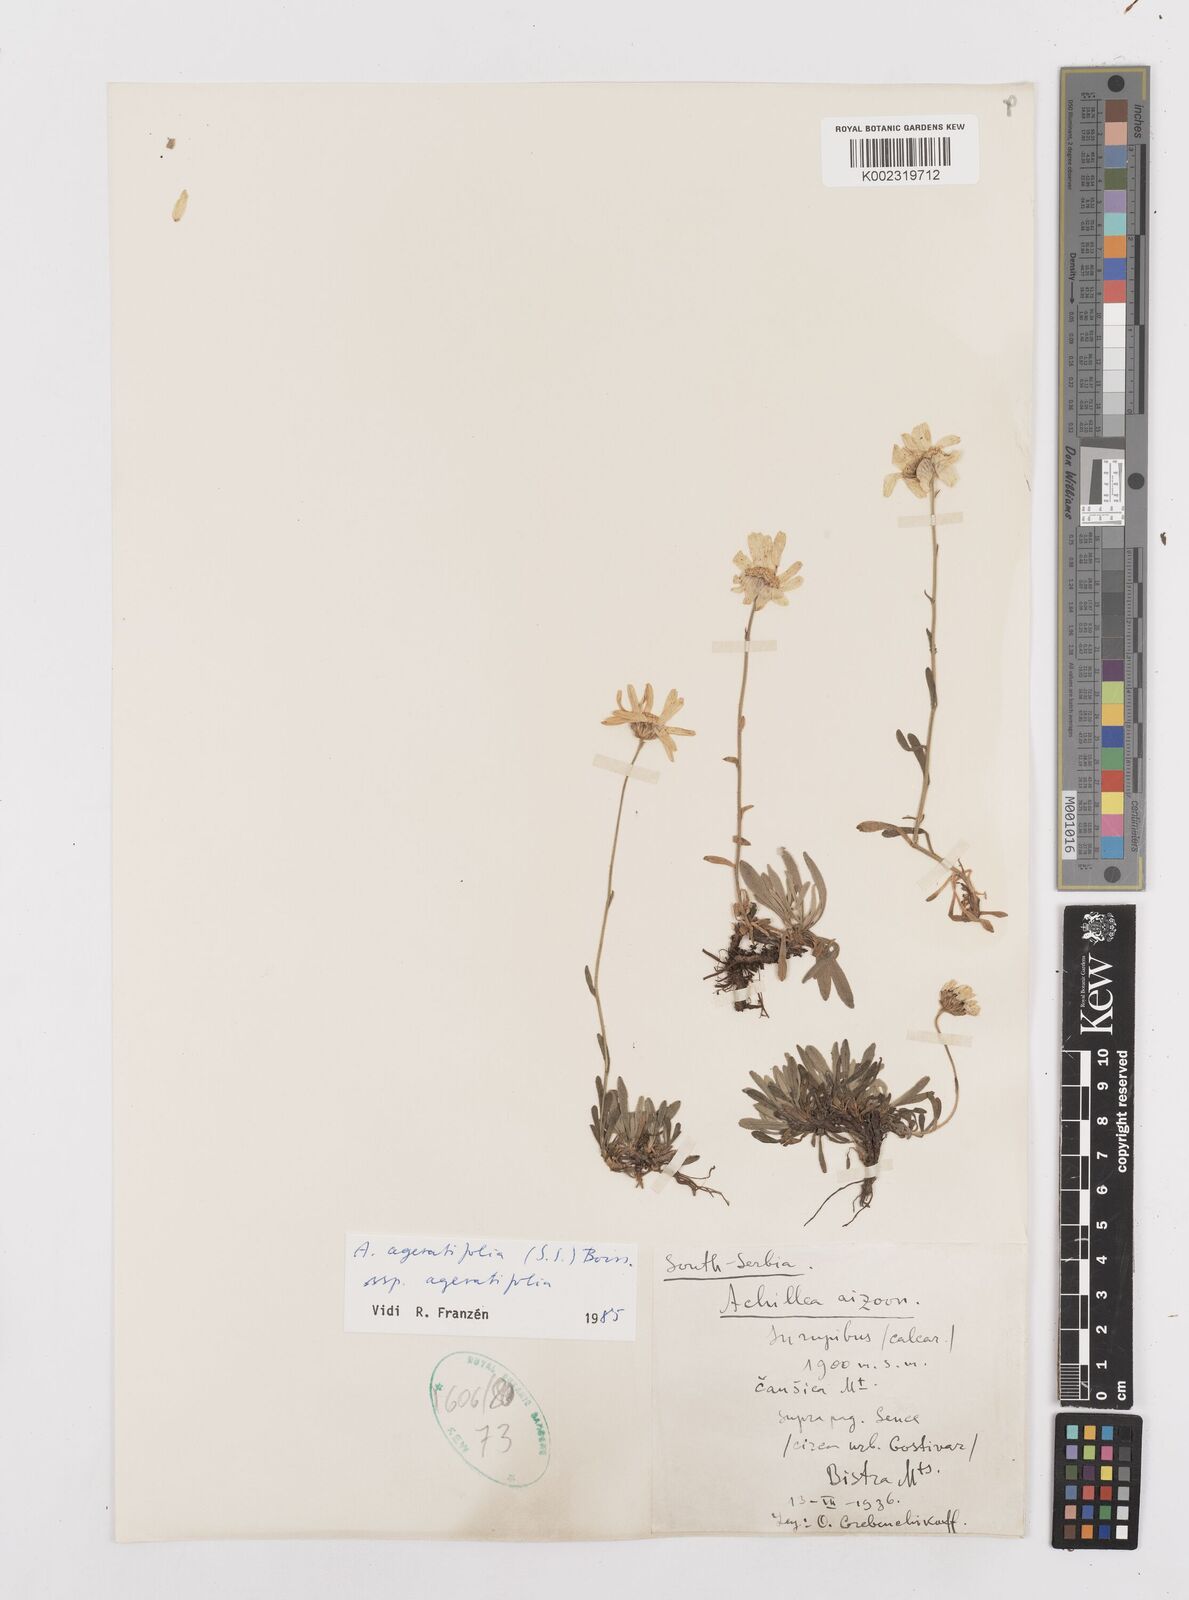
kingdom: Plantae
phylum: Tracheophyta
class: Magnoliopsida
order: Asterales
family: Asteraceae
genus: Achillea
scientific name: Achillea ageratifolia
